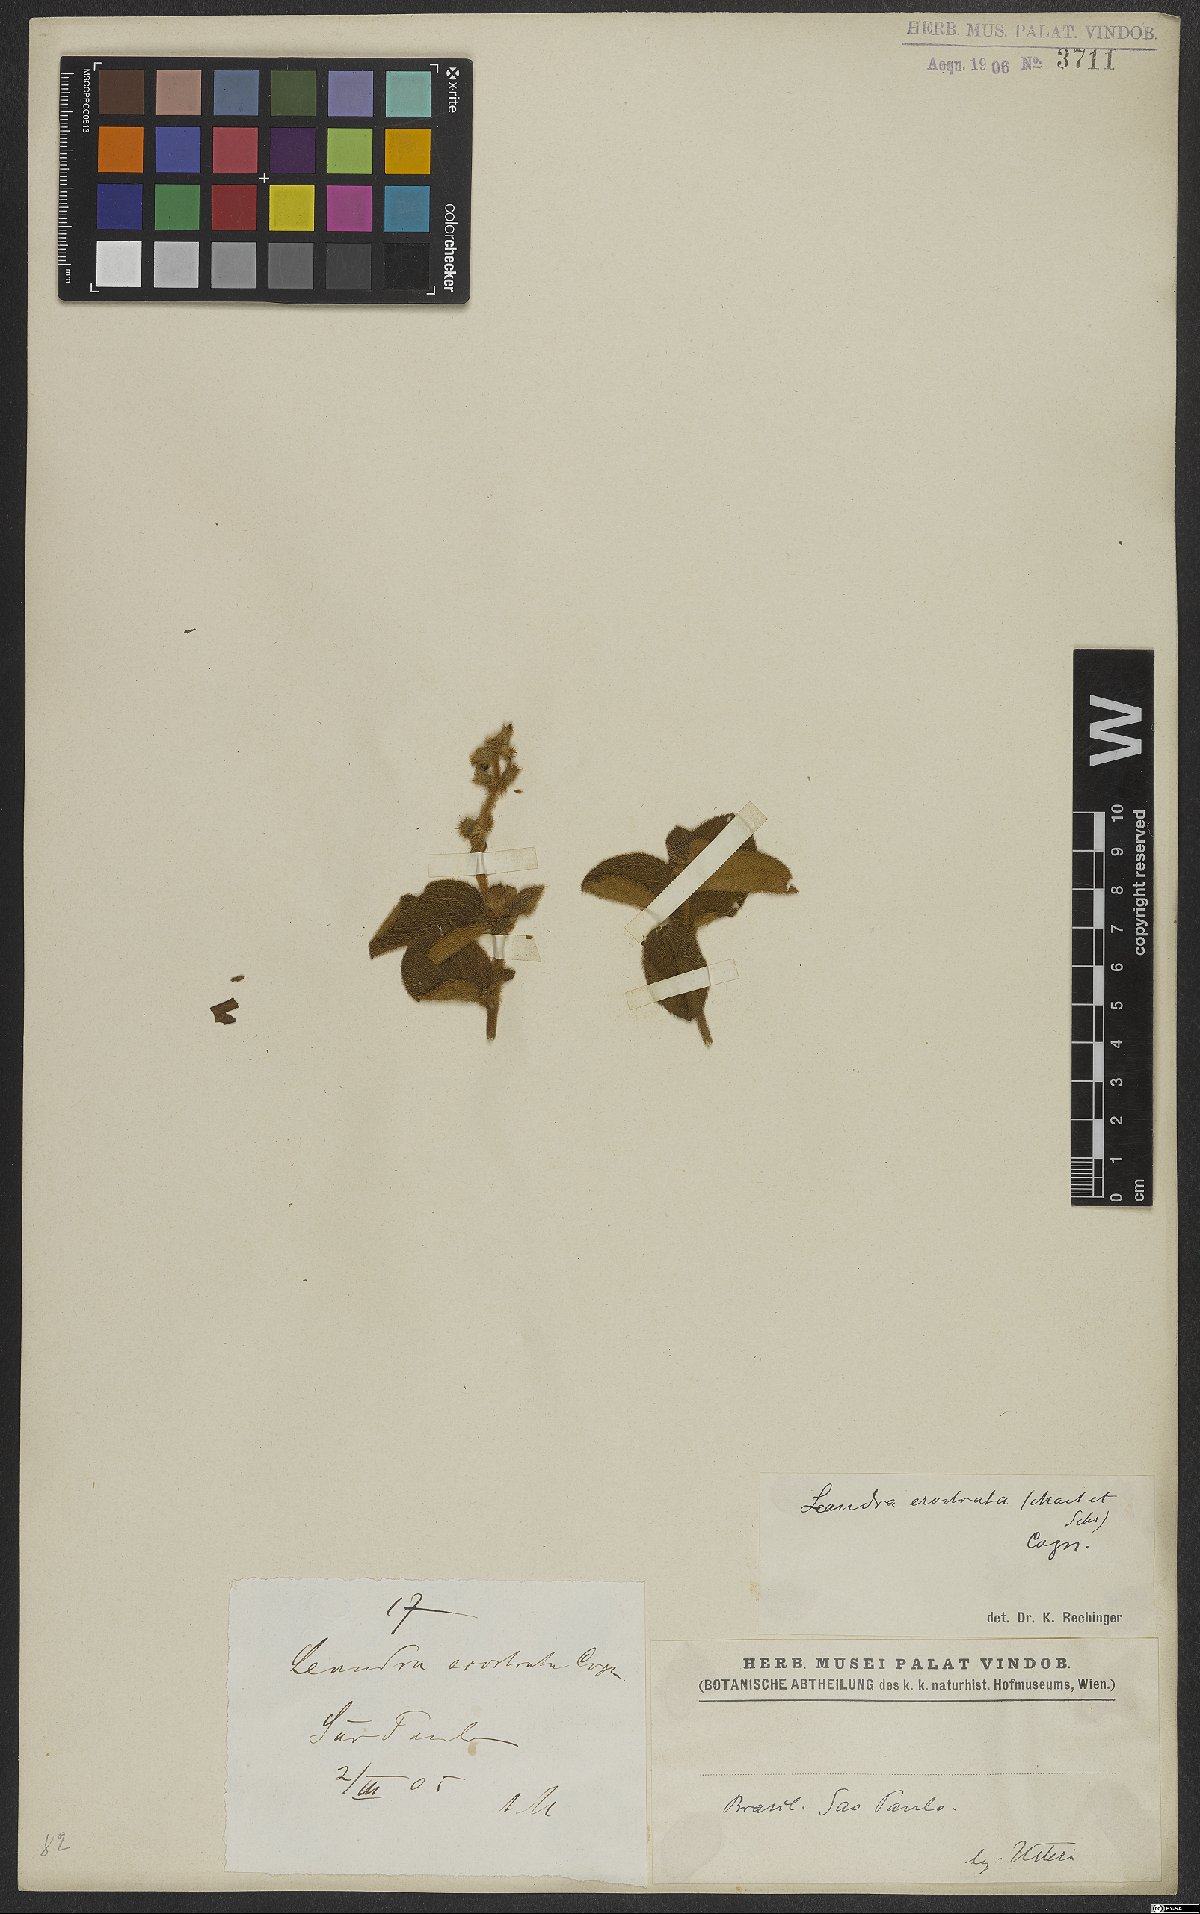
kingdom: Plantae
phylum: Tracheophyta
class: Magnoliopsida
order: Myrtales
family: Melastomataceae
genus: Miconia
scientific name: Miconia erostrata
